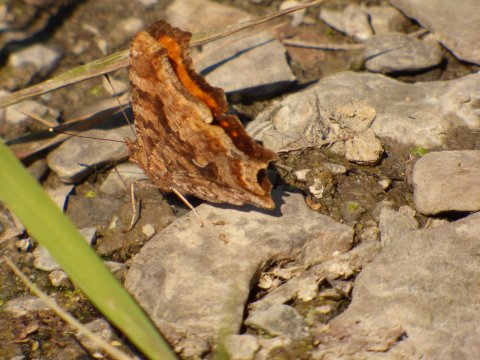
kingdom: Animalia
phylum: Arthropoda
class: Insecta
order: Lepidoptera
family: Nymphalidae
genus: Polygonia
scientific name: Polygonia comma
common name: Eastern Comma
